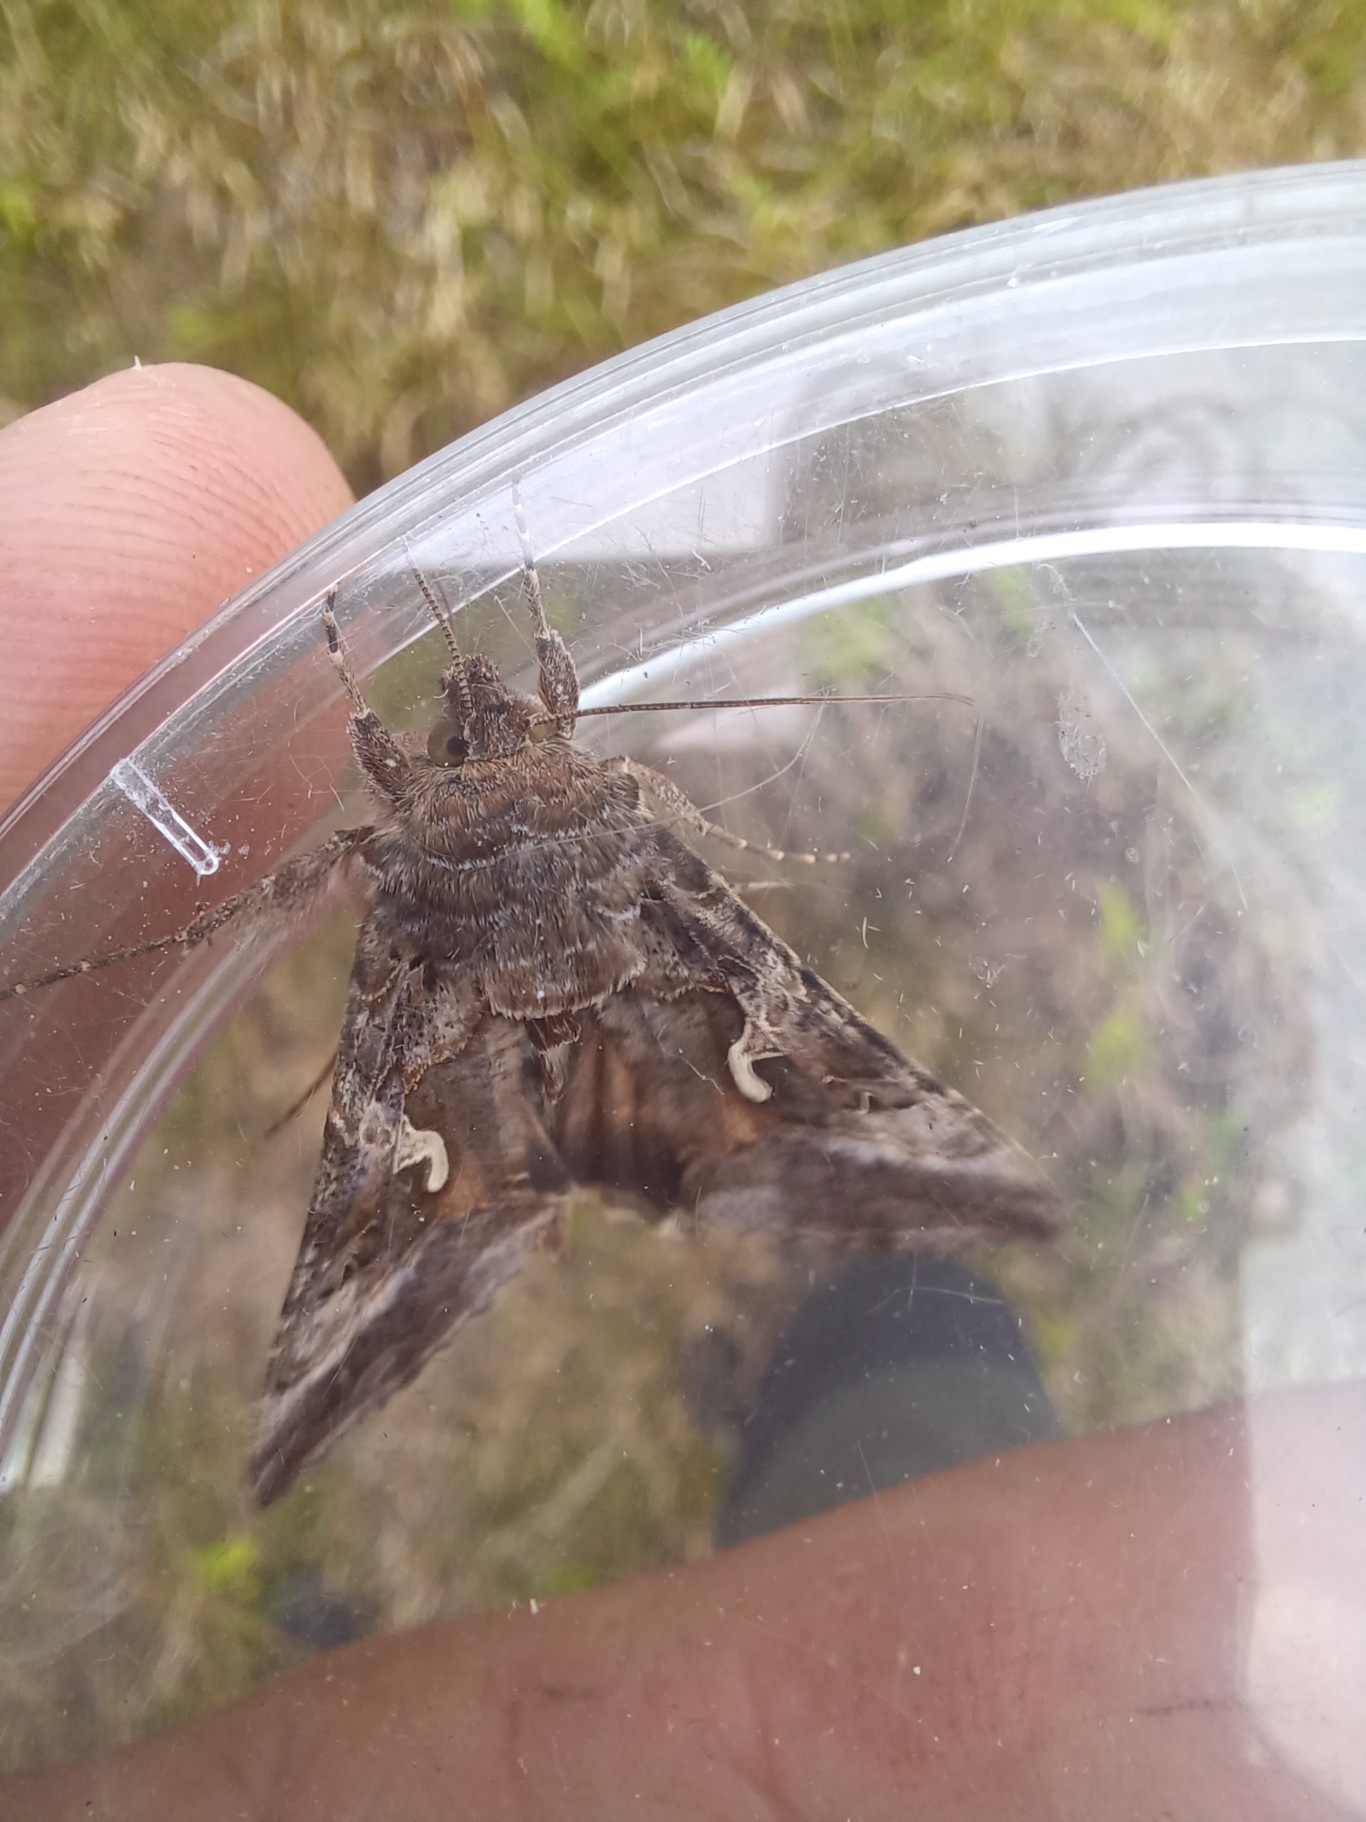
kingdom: Animalia
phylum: Arthropoda
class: Insecta
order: Lepidoptera
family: Noctuidae
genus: Autographa
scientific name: Autographa gamma
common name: Gammaugle
